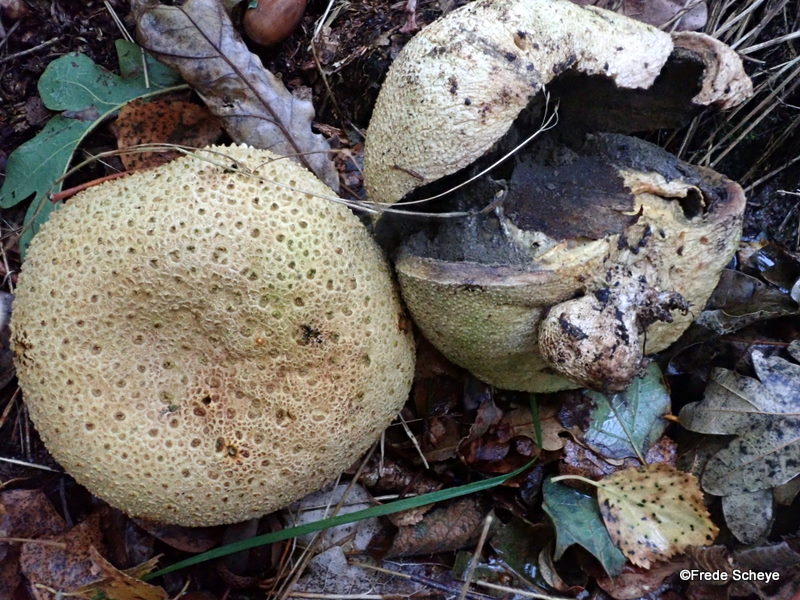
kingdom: Fungi
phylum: Basidiomycota
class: Agaricomycetes
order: Boletales
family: Sclerodermataceae
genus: Scleroderma
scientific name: Scleroderma citrinum
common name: almindelig bruskbold
